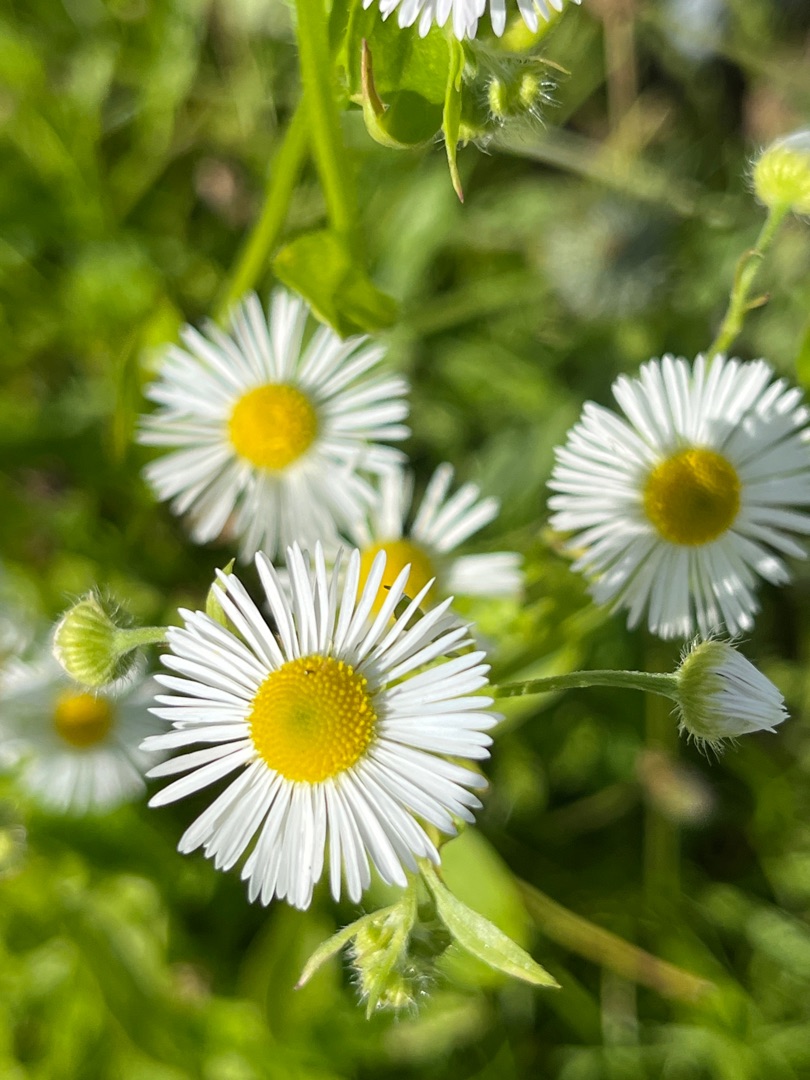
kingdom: Plantae
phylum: Tracheophyta
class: Magnoliopsida
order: Asterales
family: Asteraceae
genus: Erigeron
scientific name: Erigeron annuus
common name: Smalstråle
